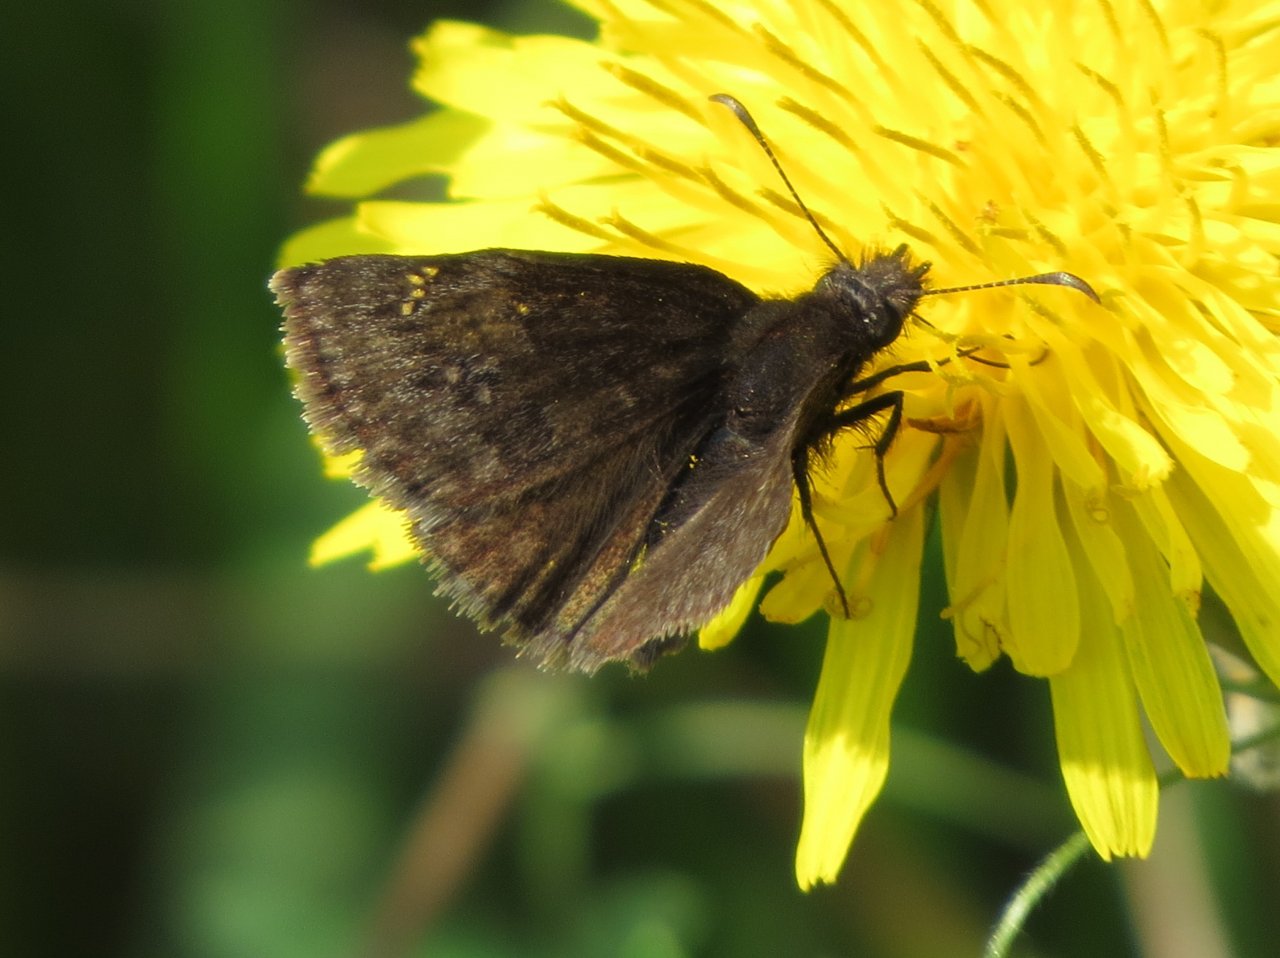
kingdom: Animalia
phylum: Arthropoda
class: Insecta
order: Lepidoptera
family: Hesperiidae
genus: Gesta
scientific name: Gesta
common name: Juvenal's Duskywing
